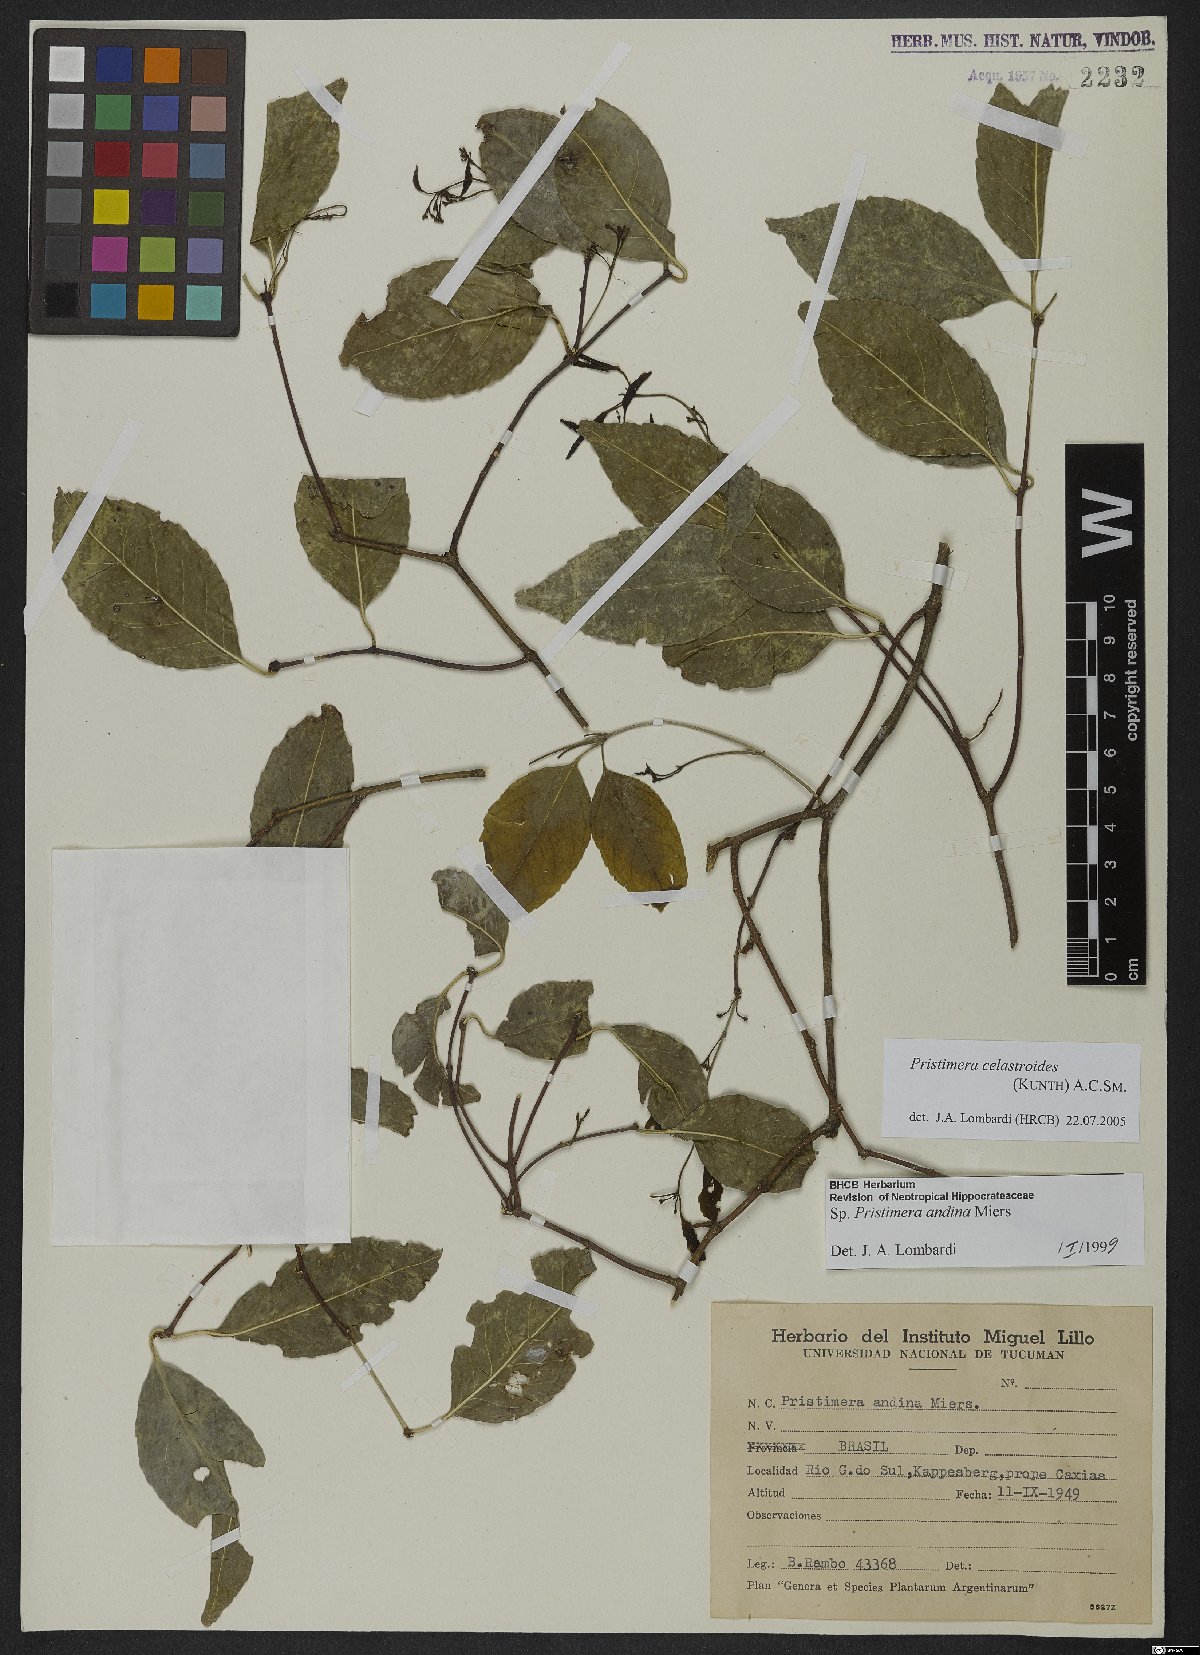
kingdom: Plantae
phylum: Tracheophyta
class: Magnoliopsida
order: Celastrales
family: Celastraceae
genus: Pristimera
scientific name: Pristimera celastroides
